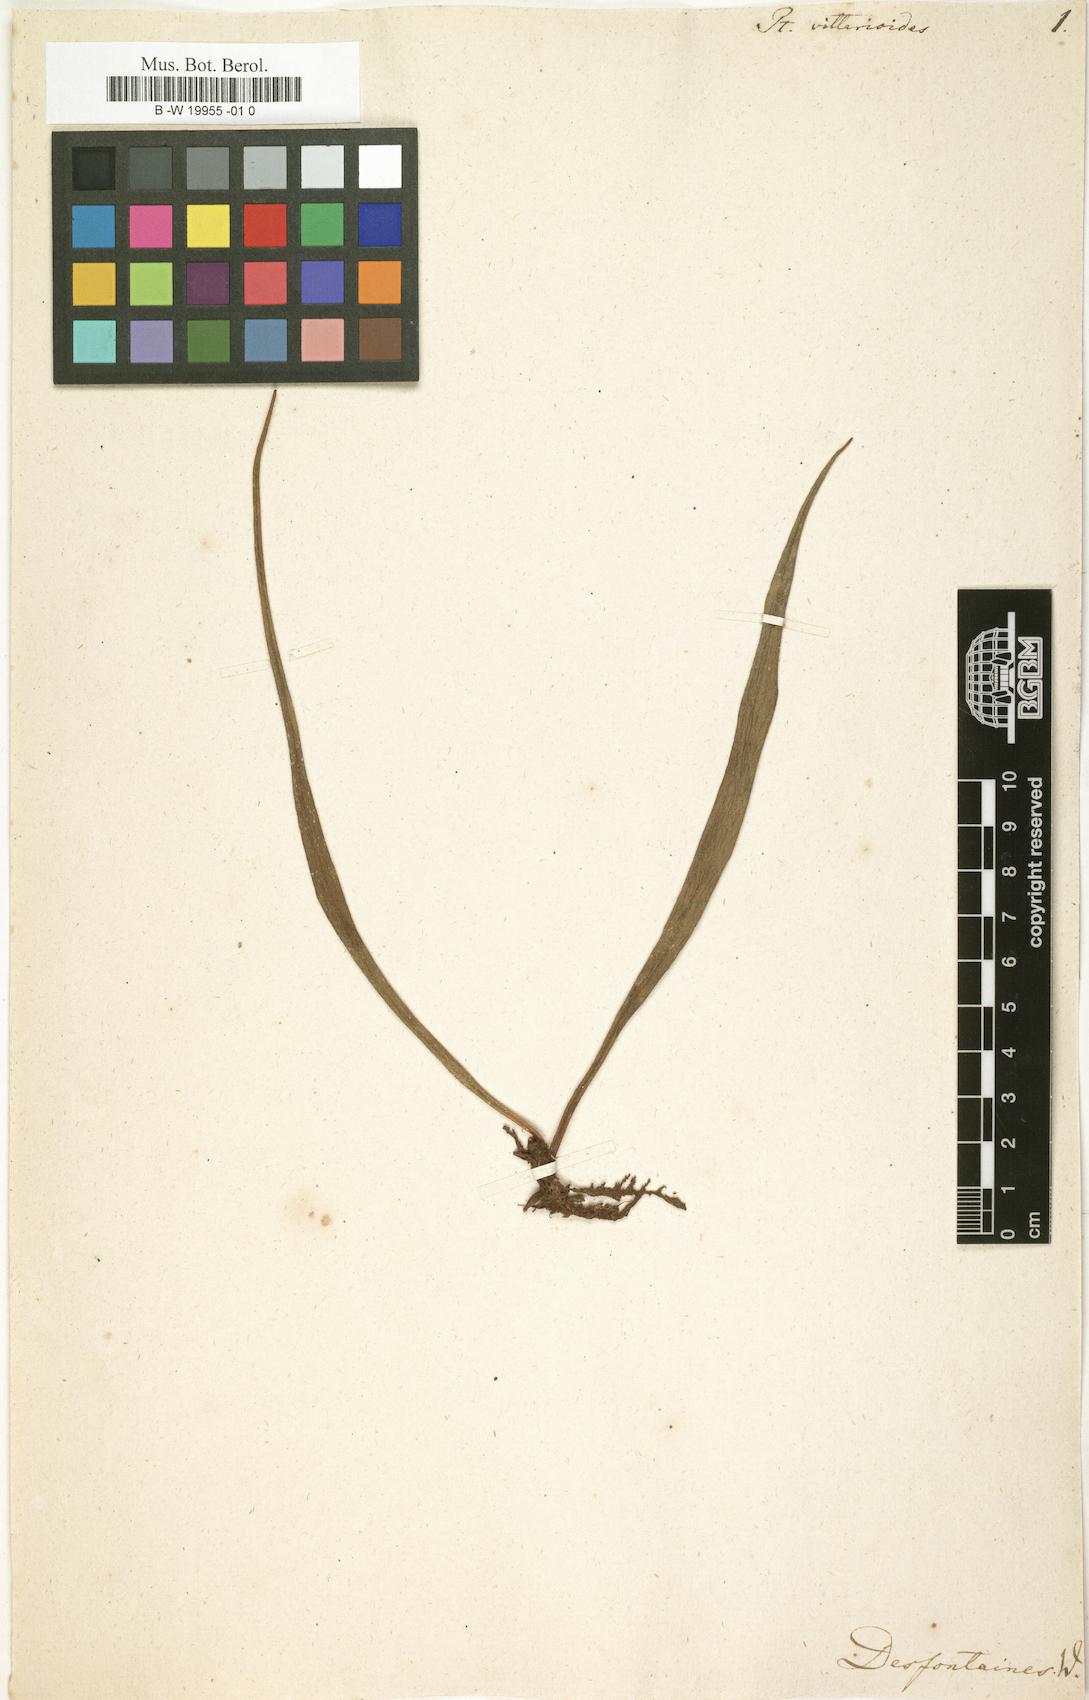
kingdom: Plantae
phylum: Tracheophyta
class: Polypodiopsida
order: Polypodiales
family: Pteridaceae
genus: Haplopteris
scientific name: Haplopteris vittarioides
